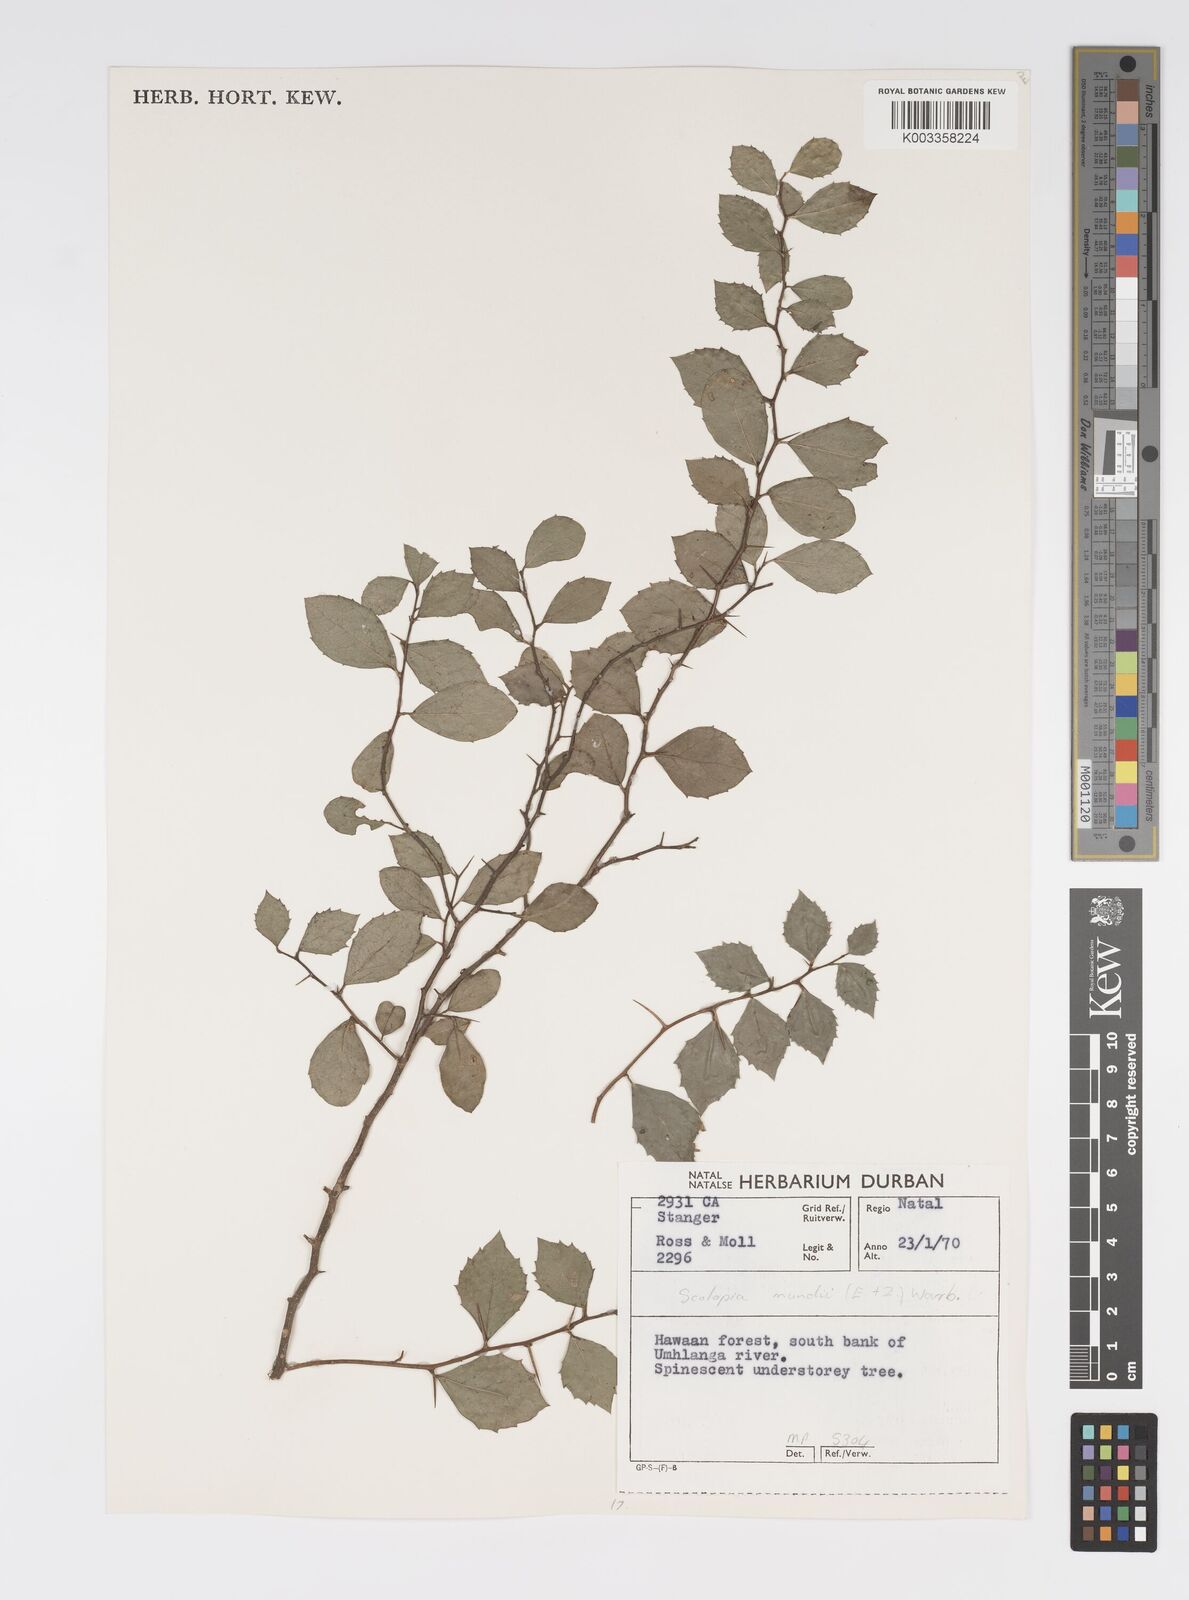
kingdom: Plantae
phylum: Tracheophyta
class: Magnoliopsida
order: Malpighiales
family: Salicaceae
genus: Scolopia
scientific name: Scolopia mundii
